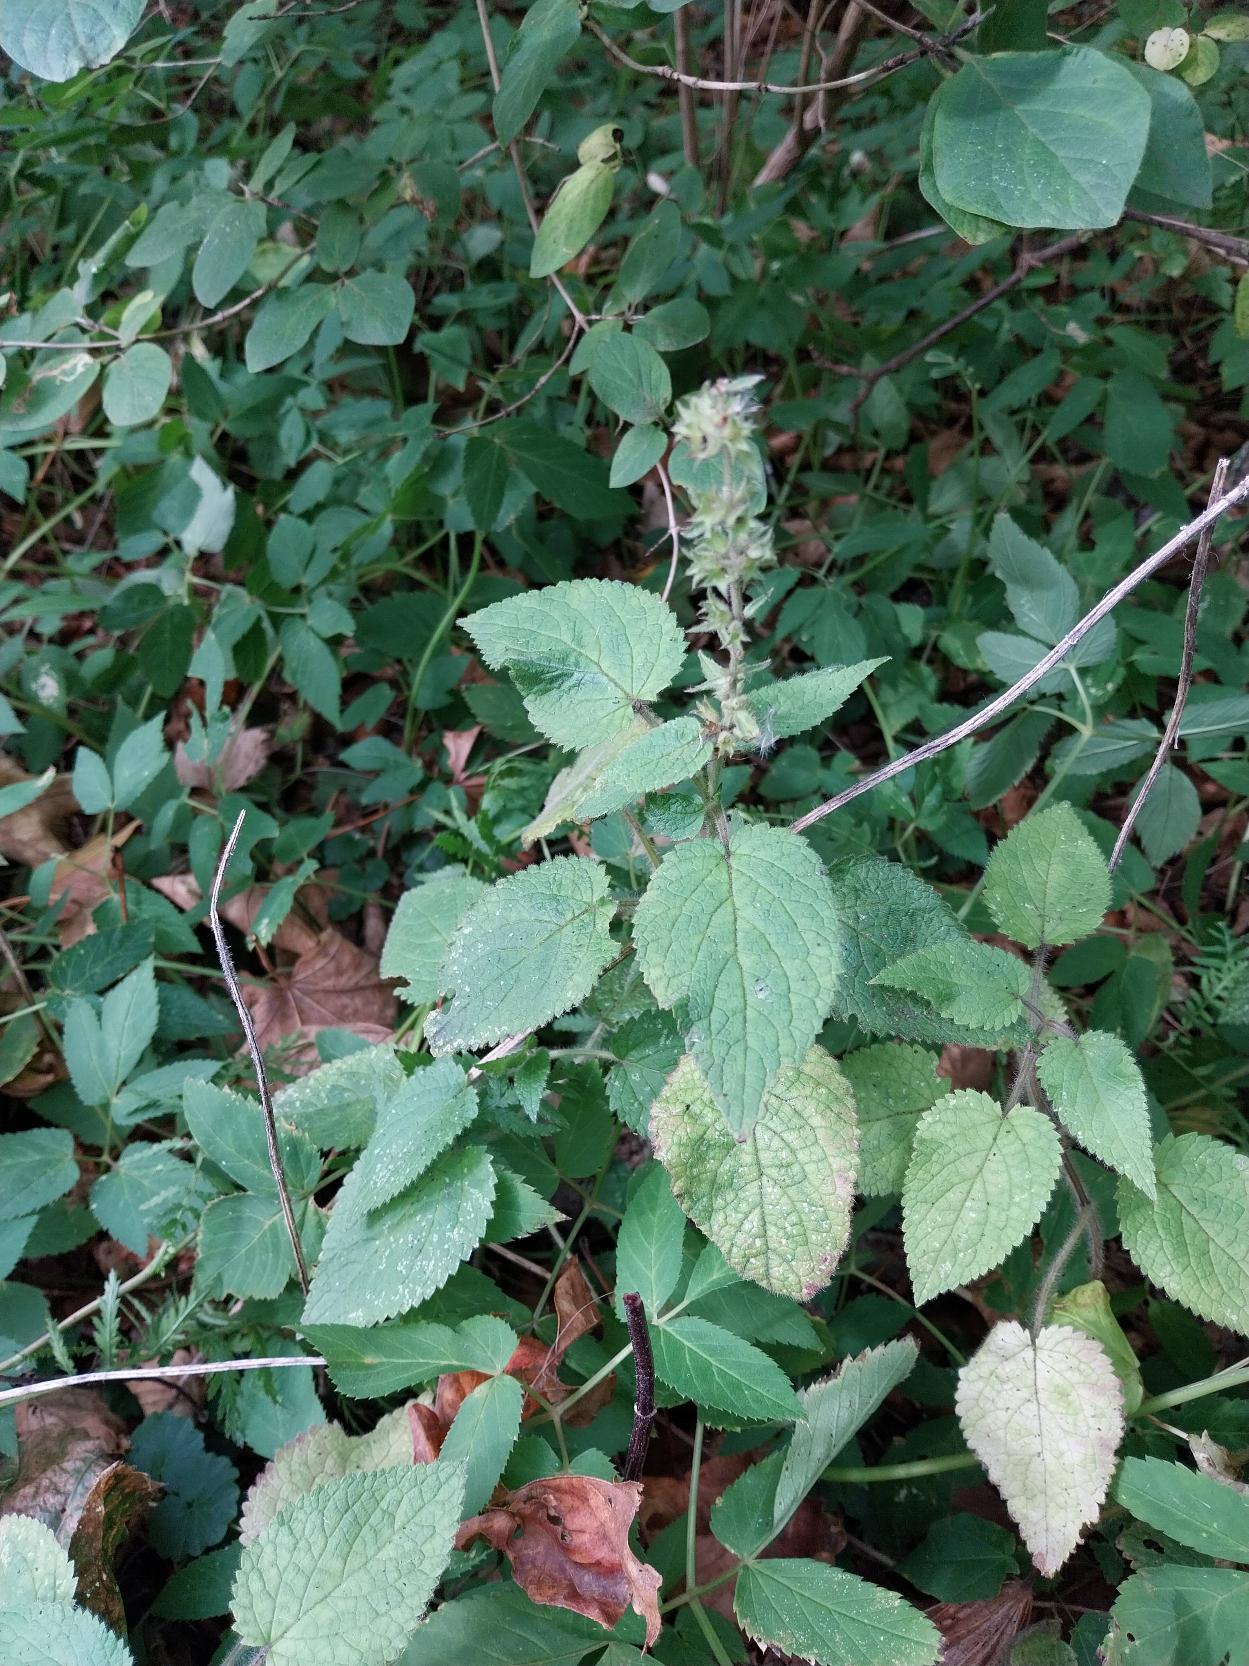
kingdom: Plantae
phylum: Tracheophyta
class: Magnoliopsida
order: Lamiales
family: Lamiaceae
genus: Stachys
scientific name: Stachys sylvatica
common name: Skov-galtetand
